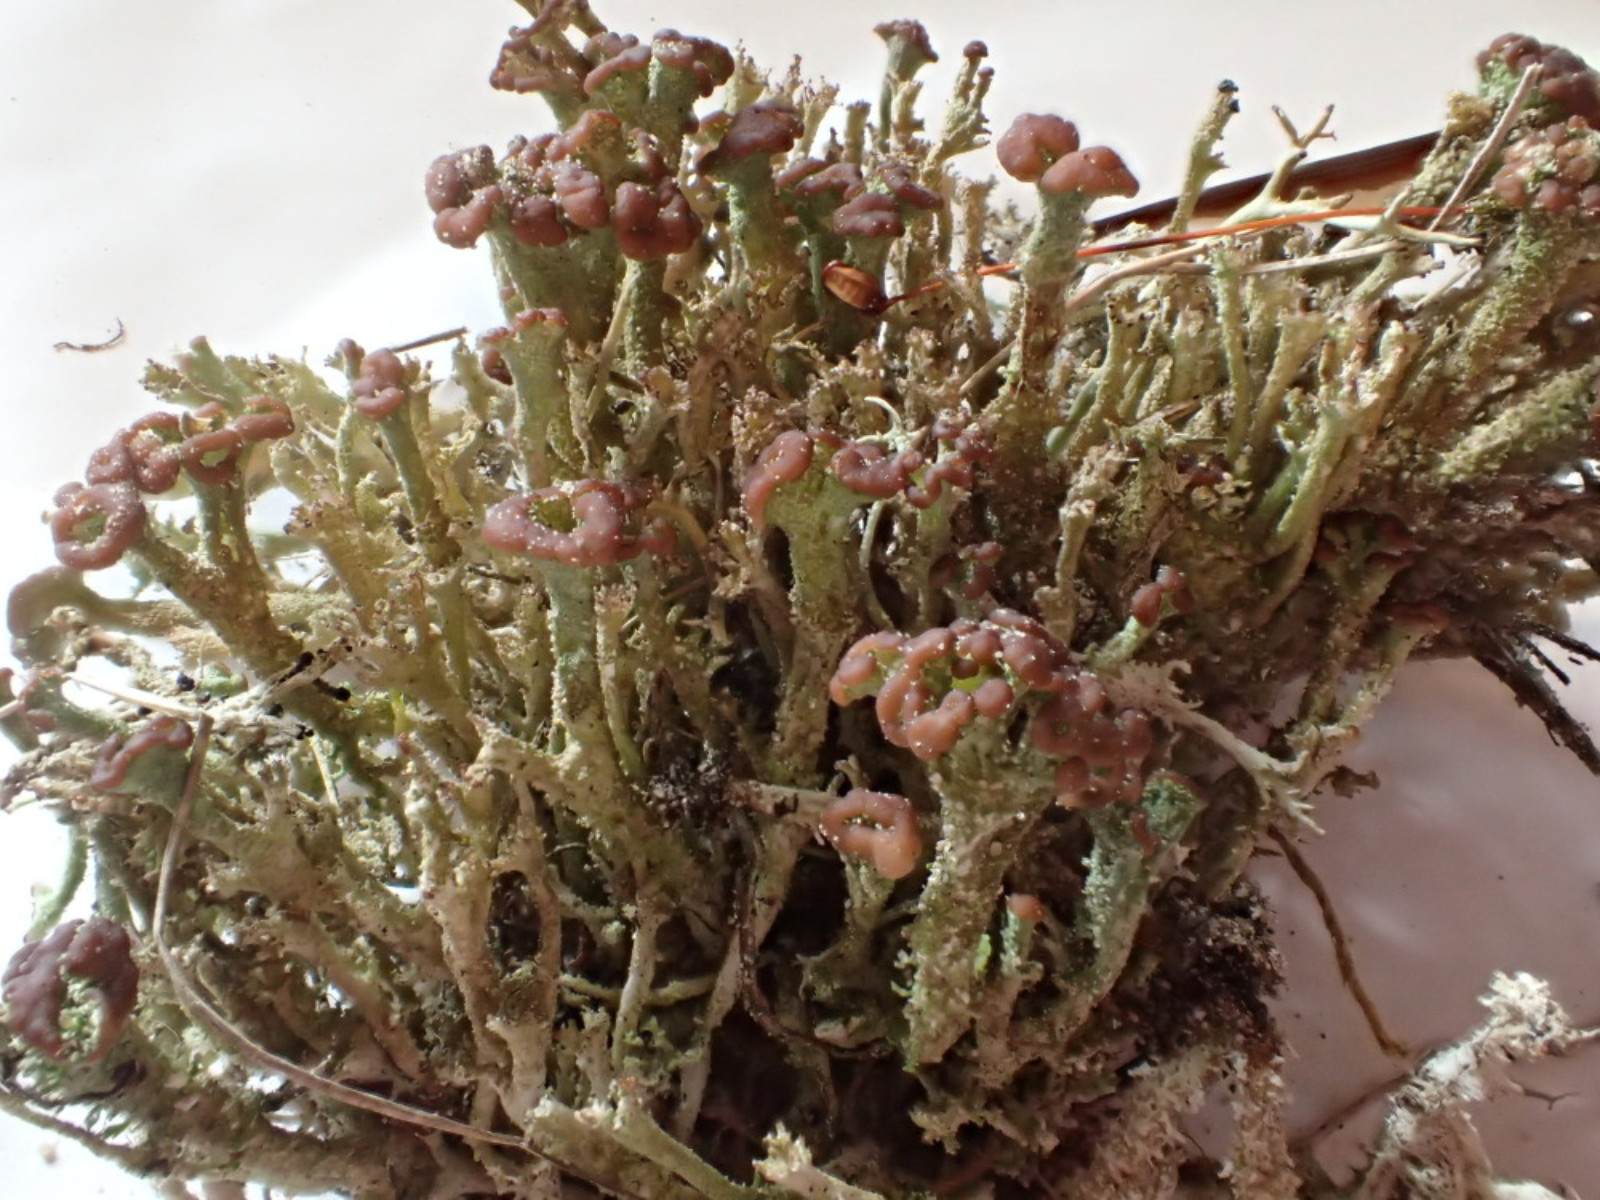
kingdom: Fungi
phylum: Ascomycota
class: Lecanoromycetes
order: Lecanorales
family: Cladoniaceae
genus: Cladonia
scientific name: Cladonia ramulosa
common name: kliddet bægerlav
